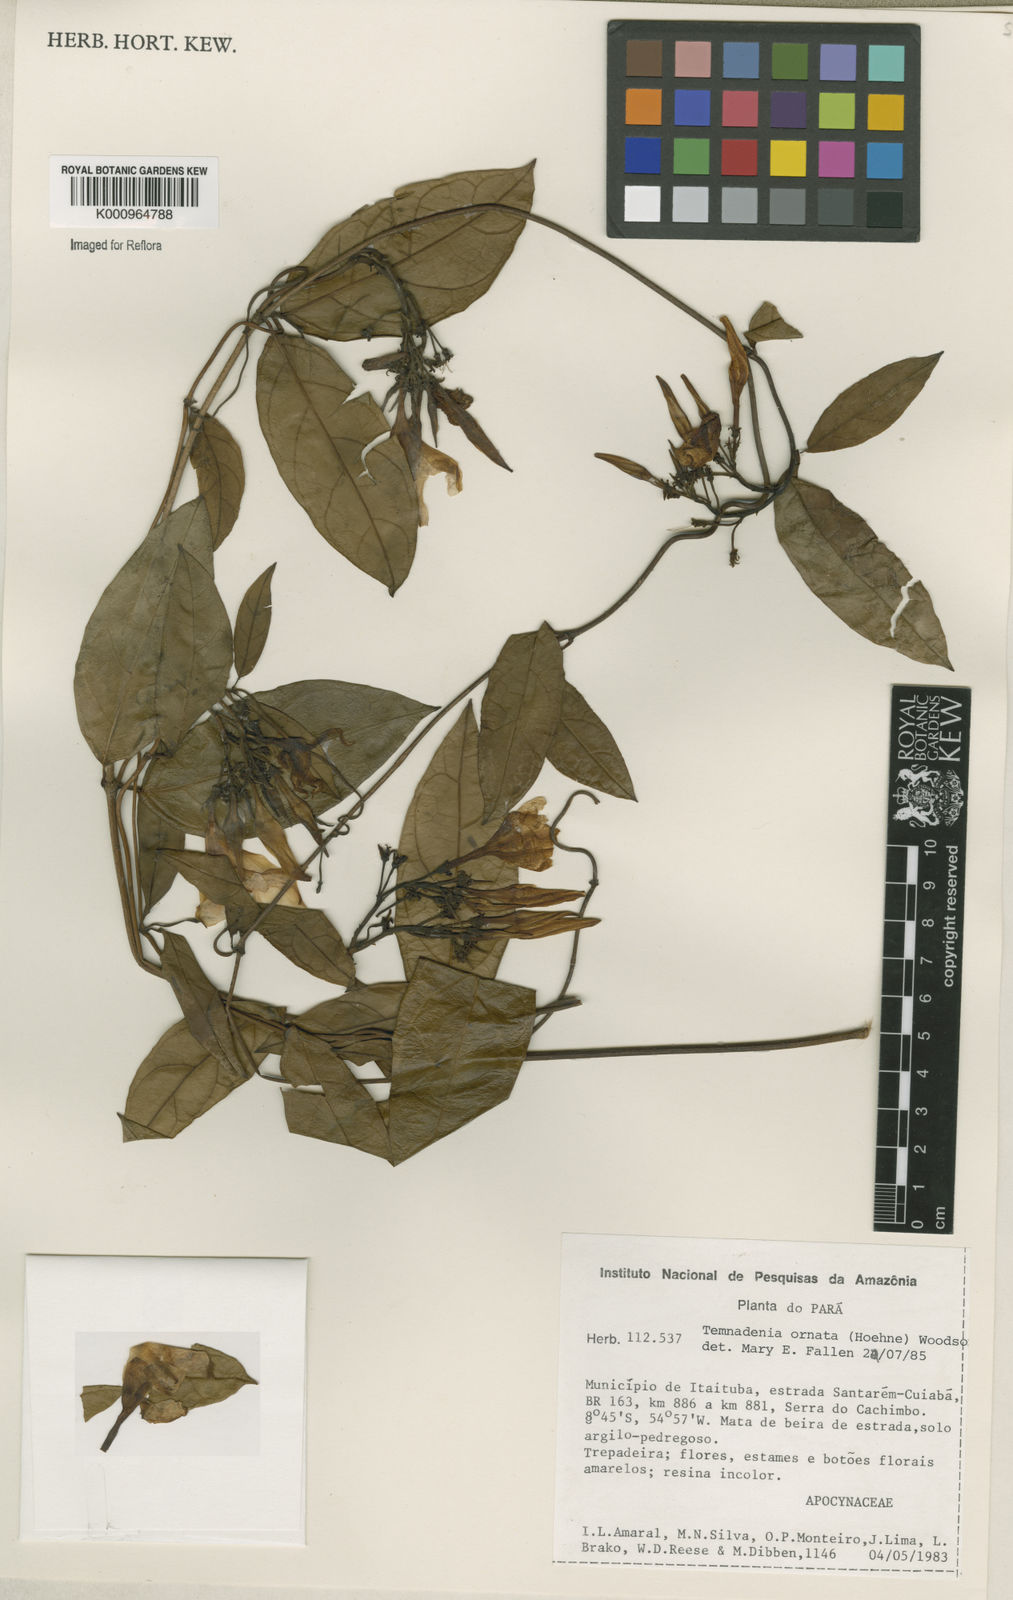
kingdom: Plantae
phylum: Tracheophyta
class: Magnoliopsida
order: Gentianales
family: Apocynaceae
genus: Prestonia
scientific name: Prestonia ornata
